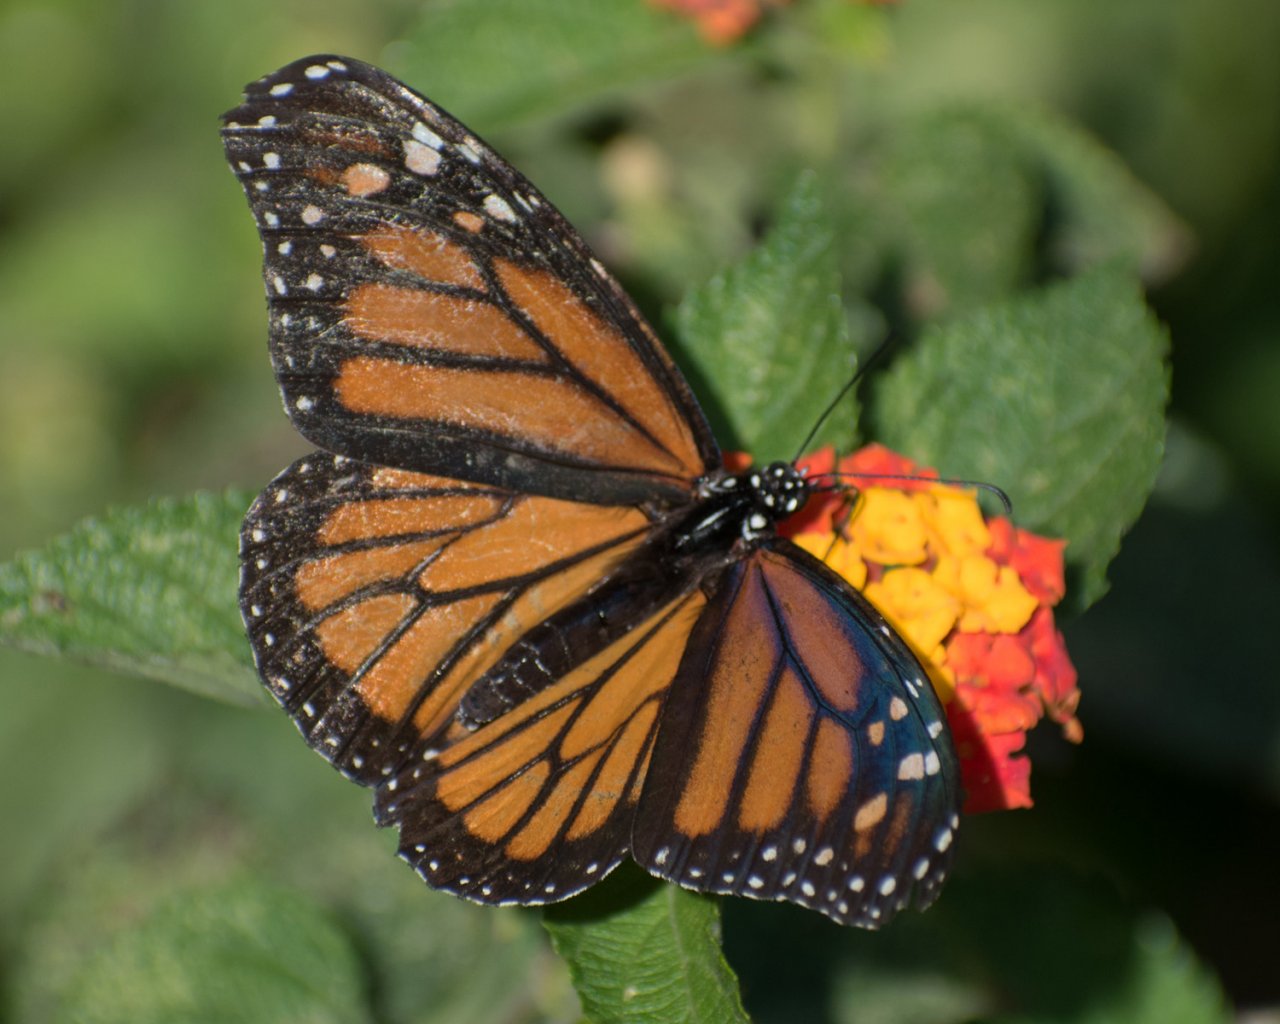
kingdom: Animalia
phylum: Arthropoda
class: Insecta
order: Lepidoptera
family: Nymphalidae
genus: Danaus
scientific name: Danaus plexippus
